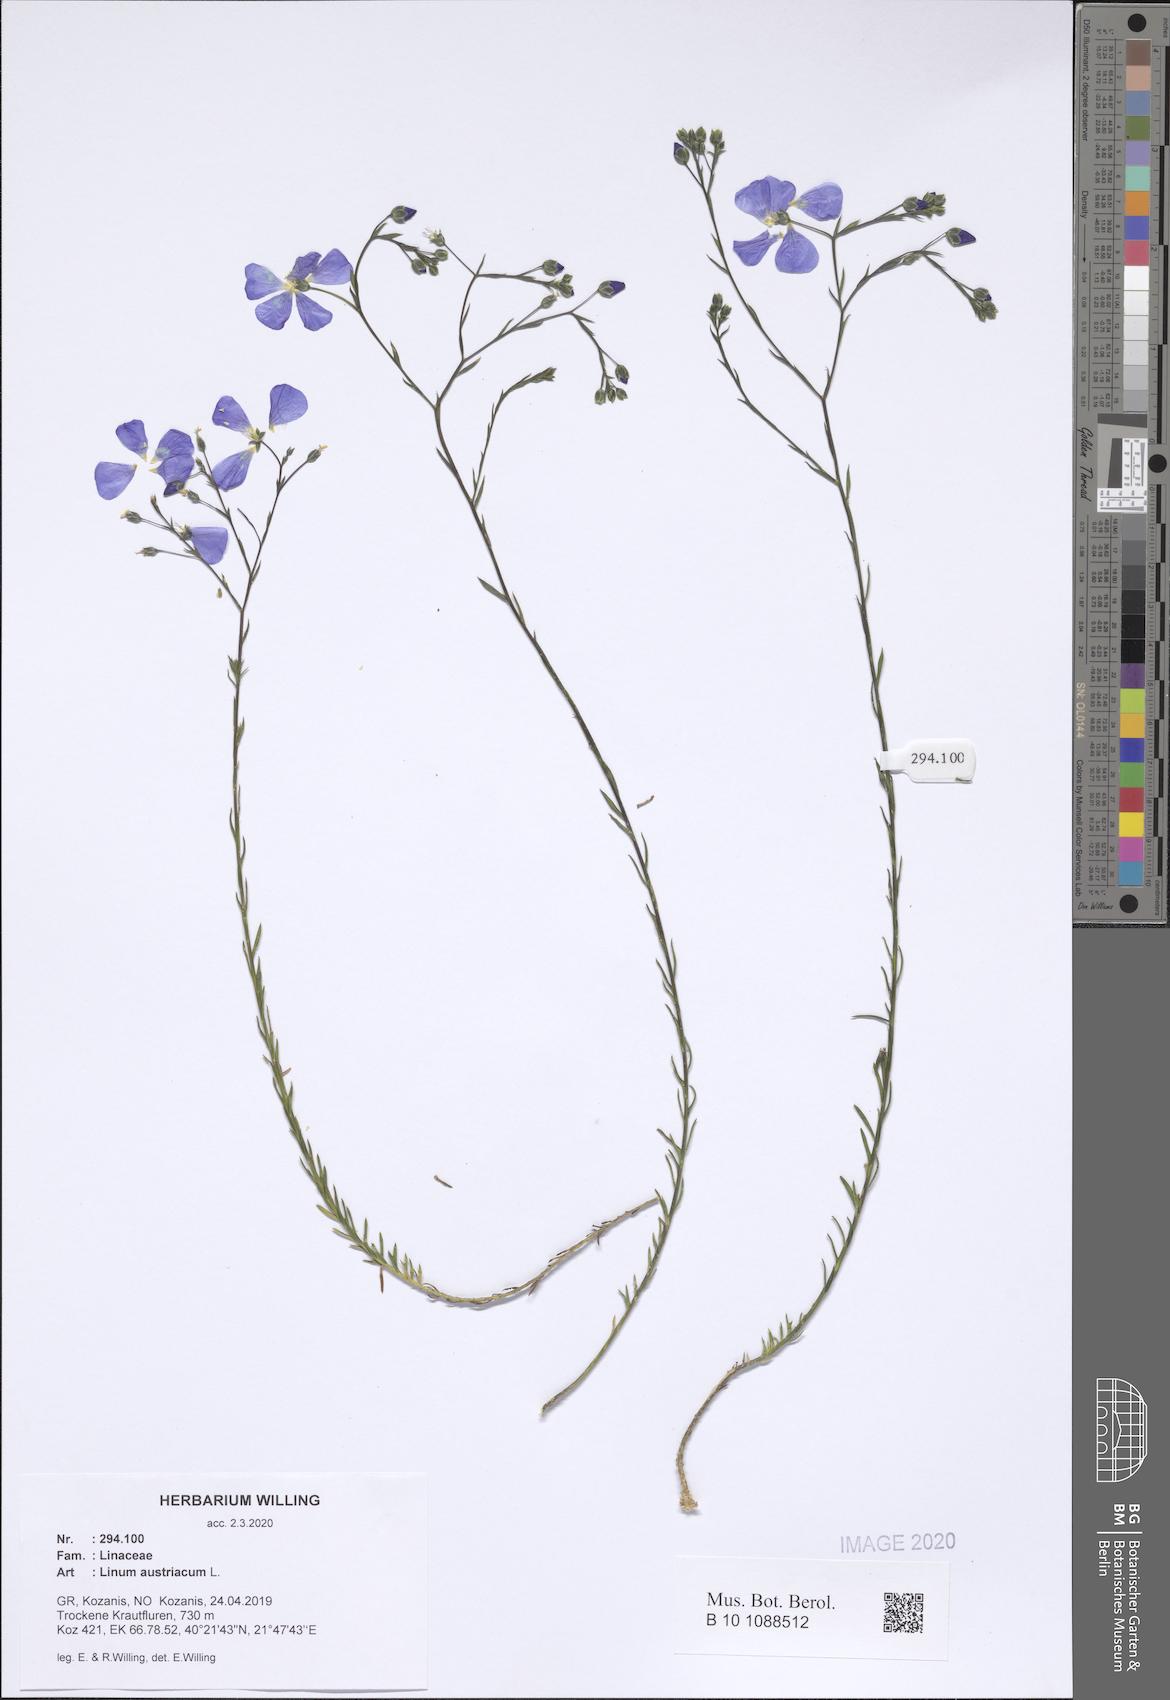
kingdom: Plantae
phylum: Tracheophyta
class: Magnoliopsida
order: Malpighiales
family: Linaceae
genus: Linum
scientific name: Linum austriacum
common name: Austrian flax
